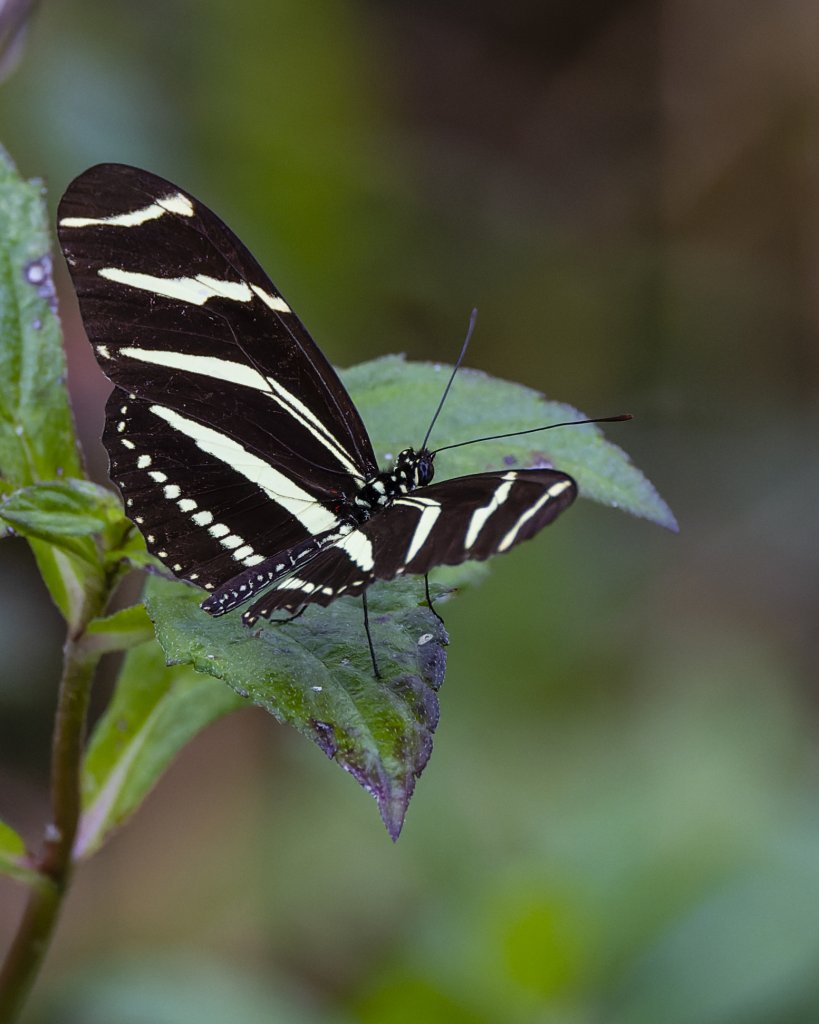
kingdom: Animalia
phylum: Arthropoda
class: Insecta
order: Lepidoptera
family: Nymphalidae
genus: Heliconius
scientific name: Heliconius charithonia
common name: Zebra Longwing
